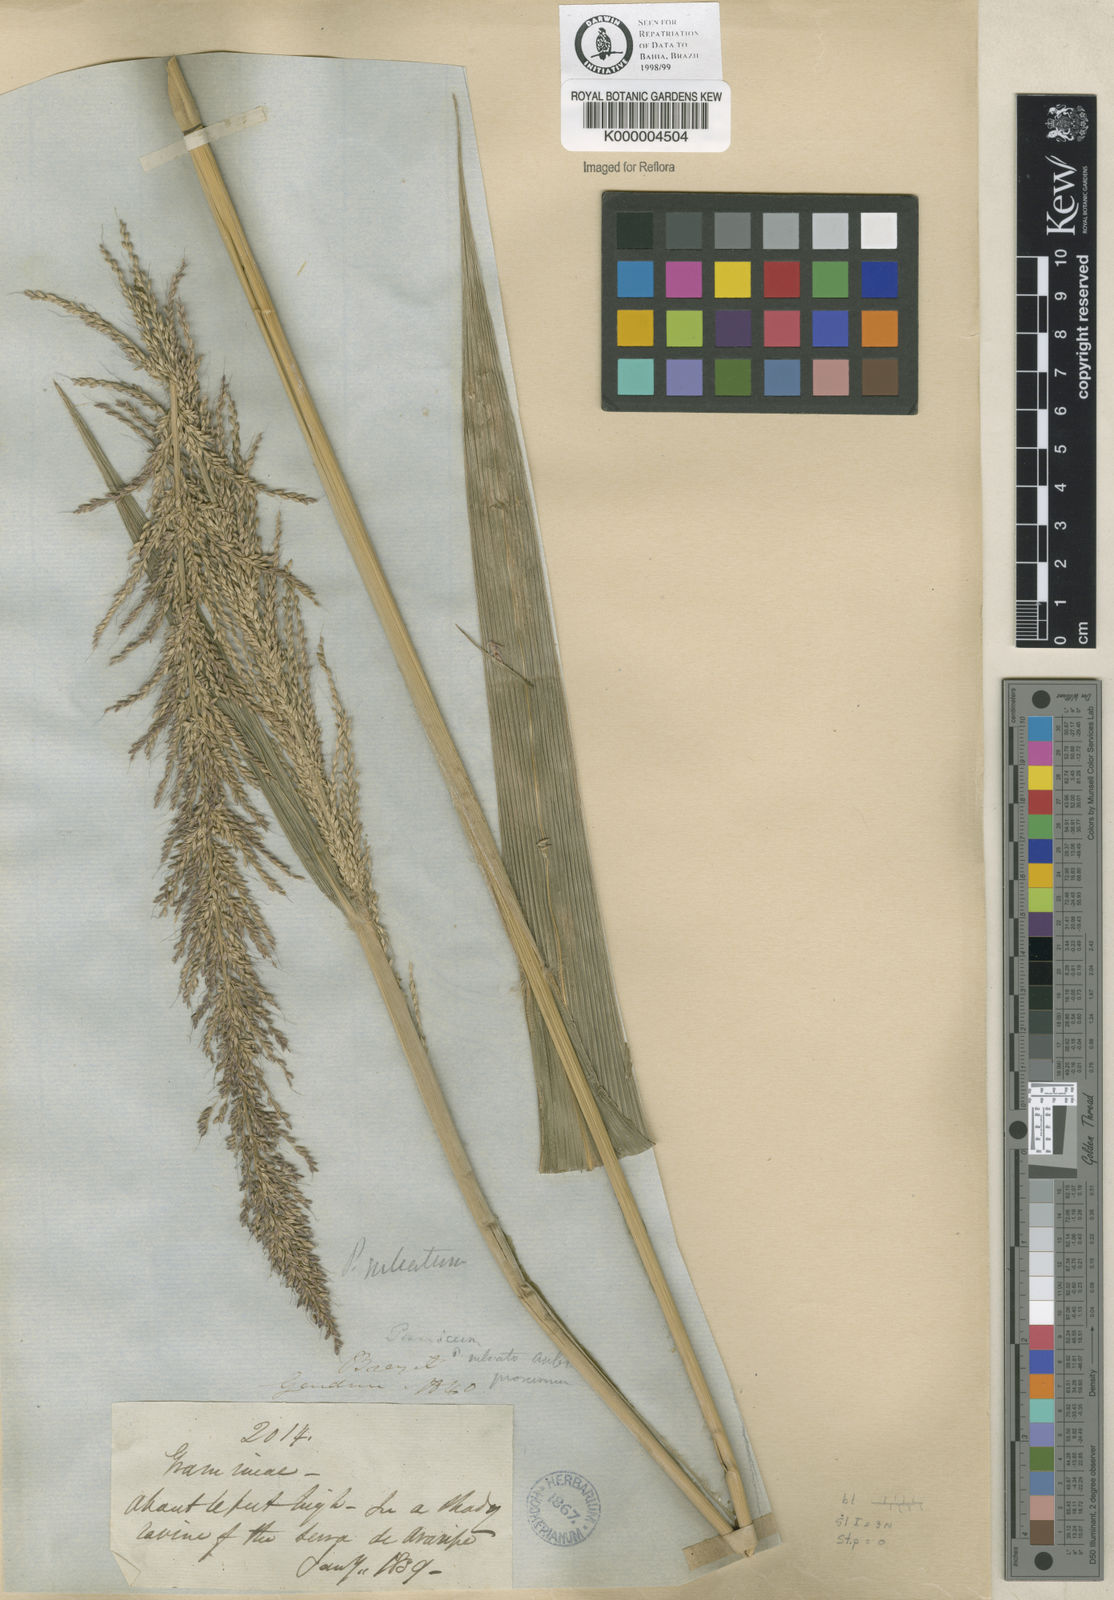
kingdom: Plantae
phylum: Tracheophyta
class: Liliopsida
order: Poales
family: Poaceae
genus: Setaria
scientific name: Setaria megaphylla
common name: Bigleaf bristlegrass
